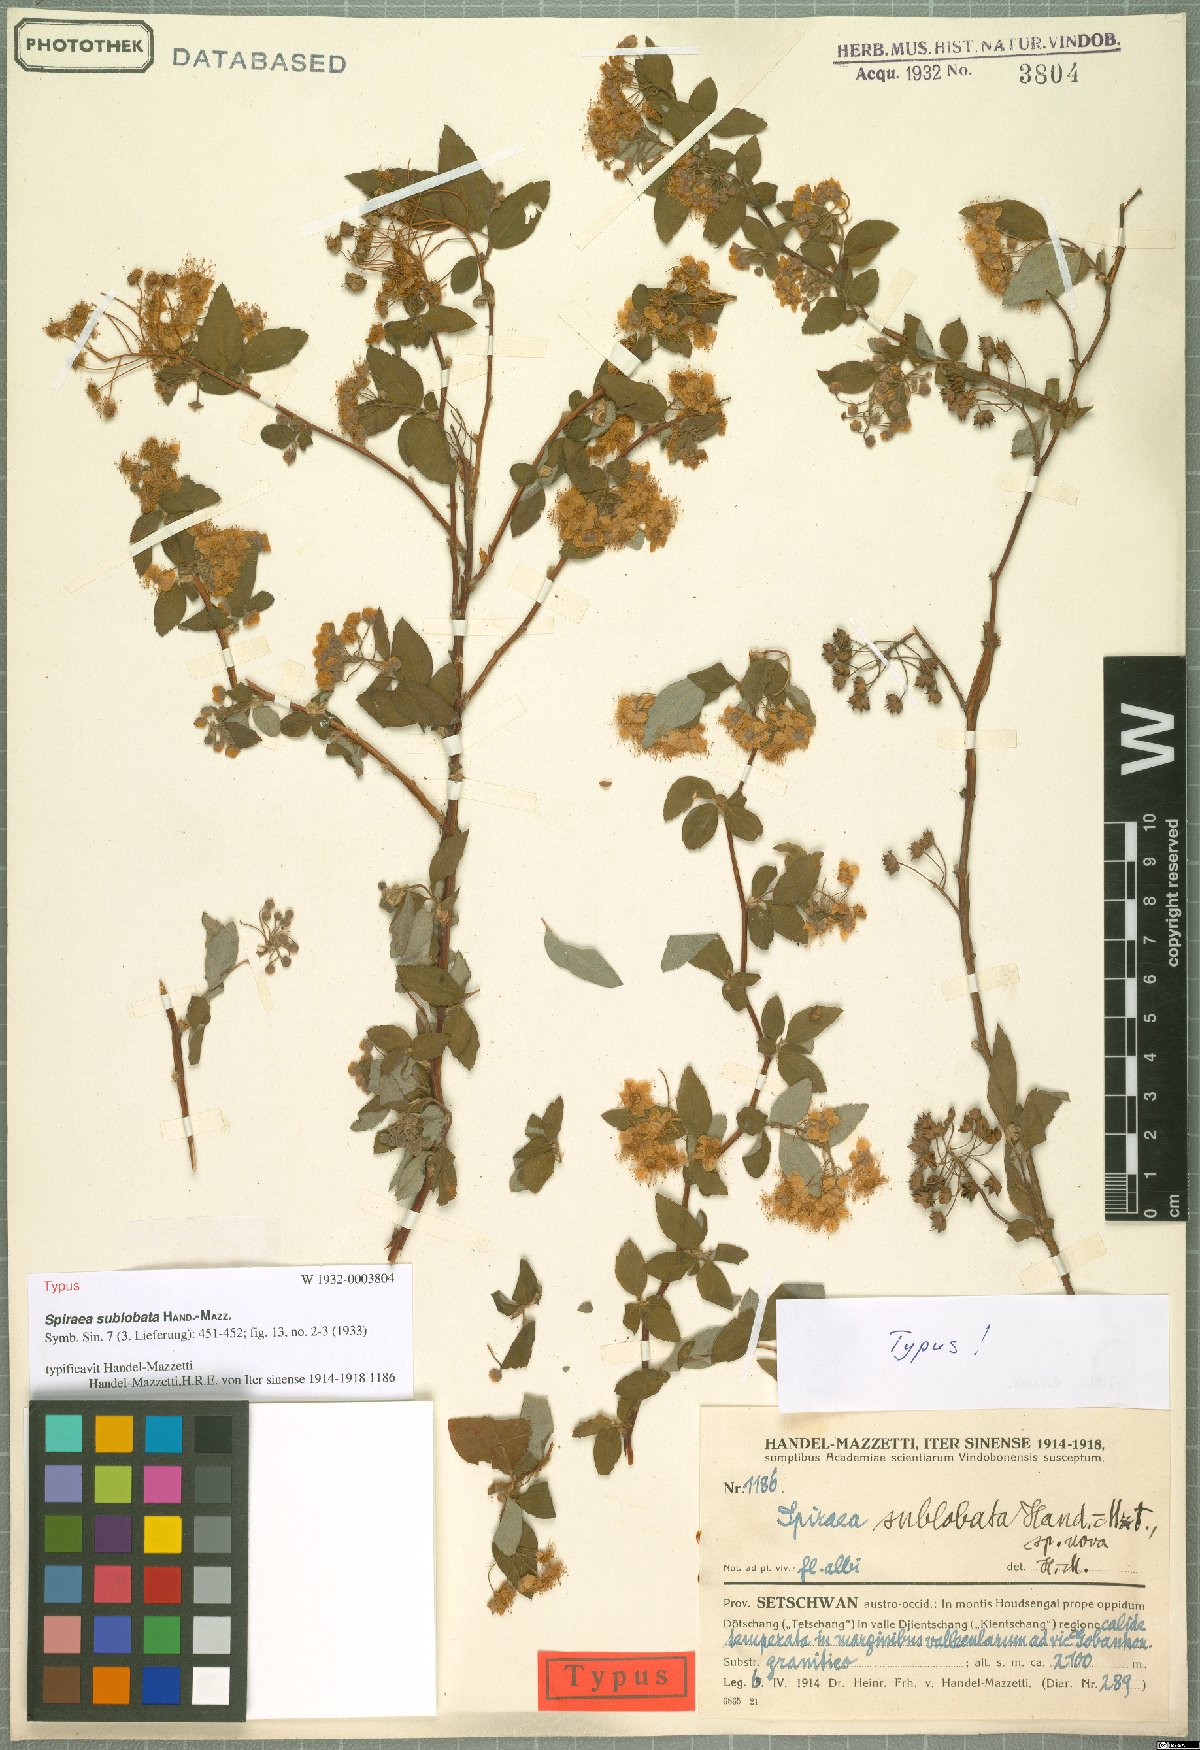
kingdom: Plantae
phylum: Tracheophyta
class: Magnoliopsida
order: Rosales
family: Rosaceae
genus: Spiraea
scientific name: Spiraea sublobata
